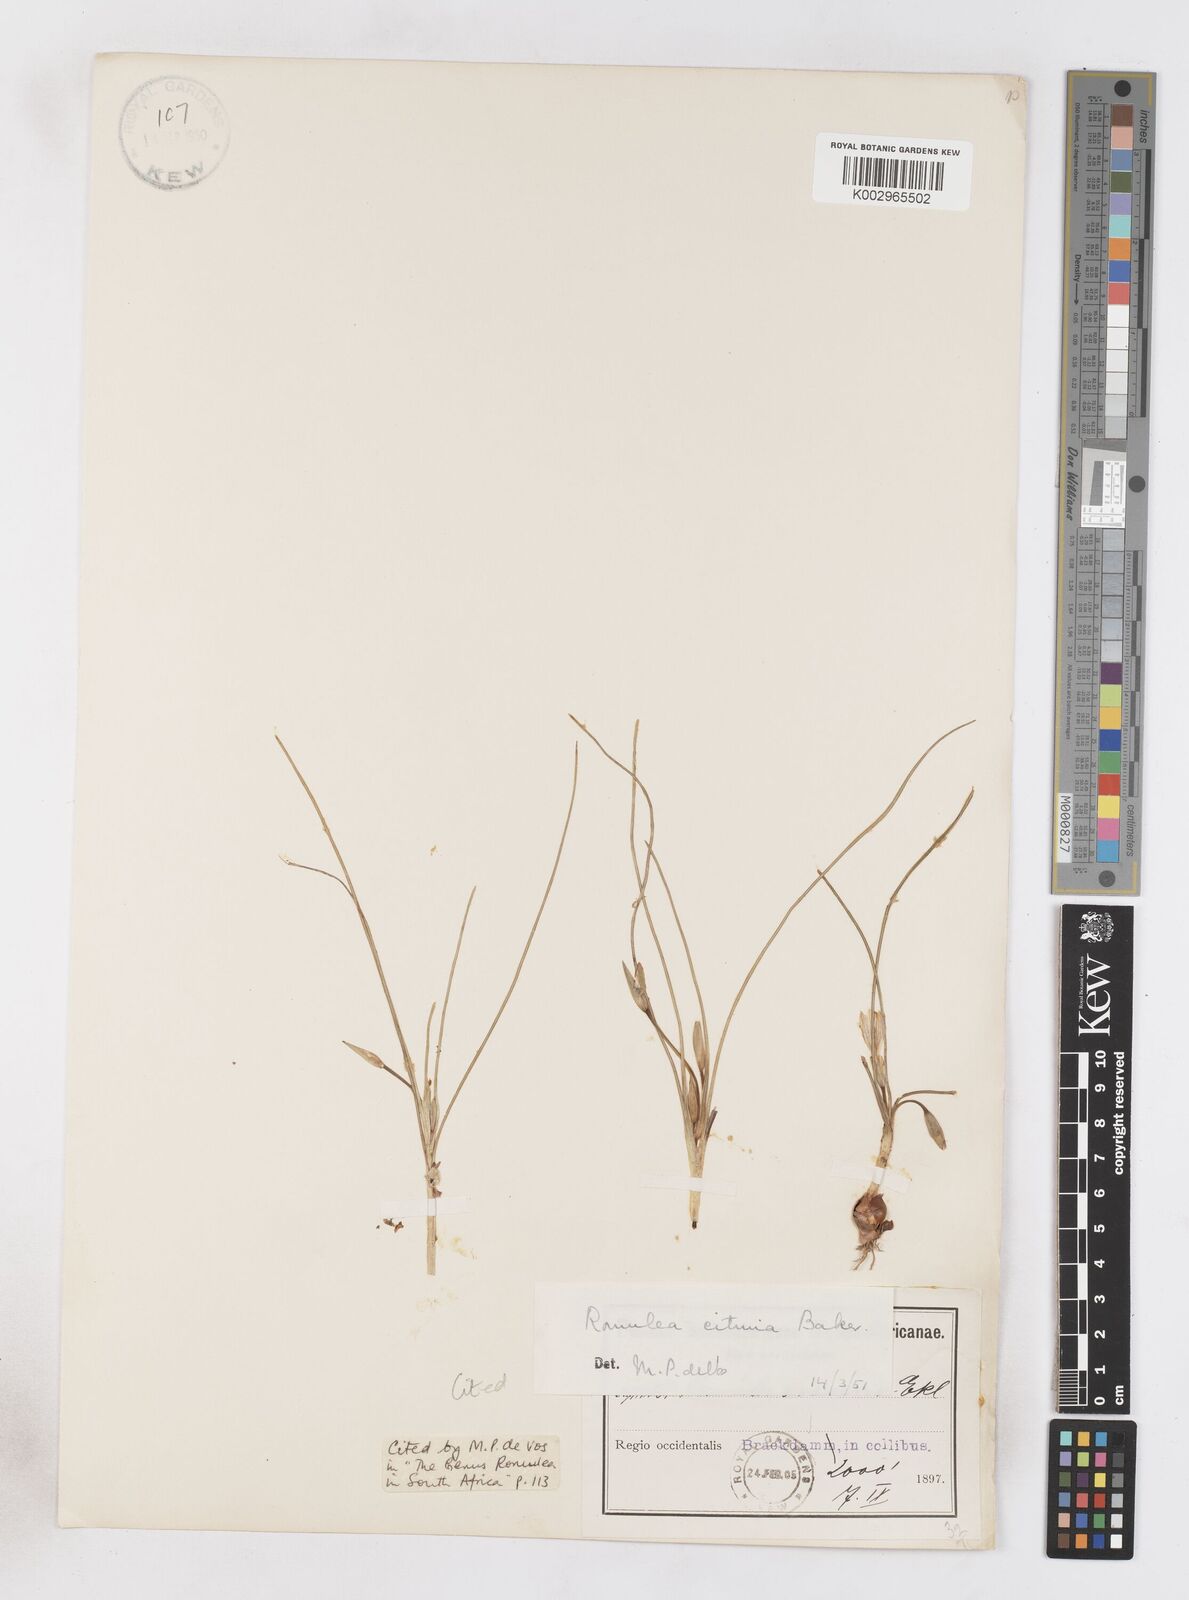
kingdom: Plantae
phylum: Tracheophyta
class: Liliopsida
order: Asparagales
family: Iridaceae
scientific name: Iridaceae
